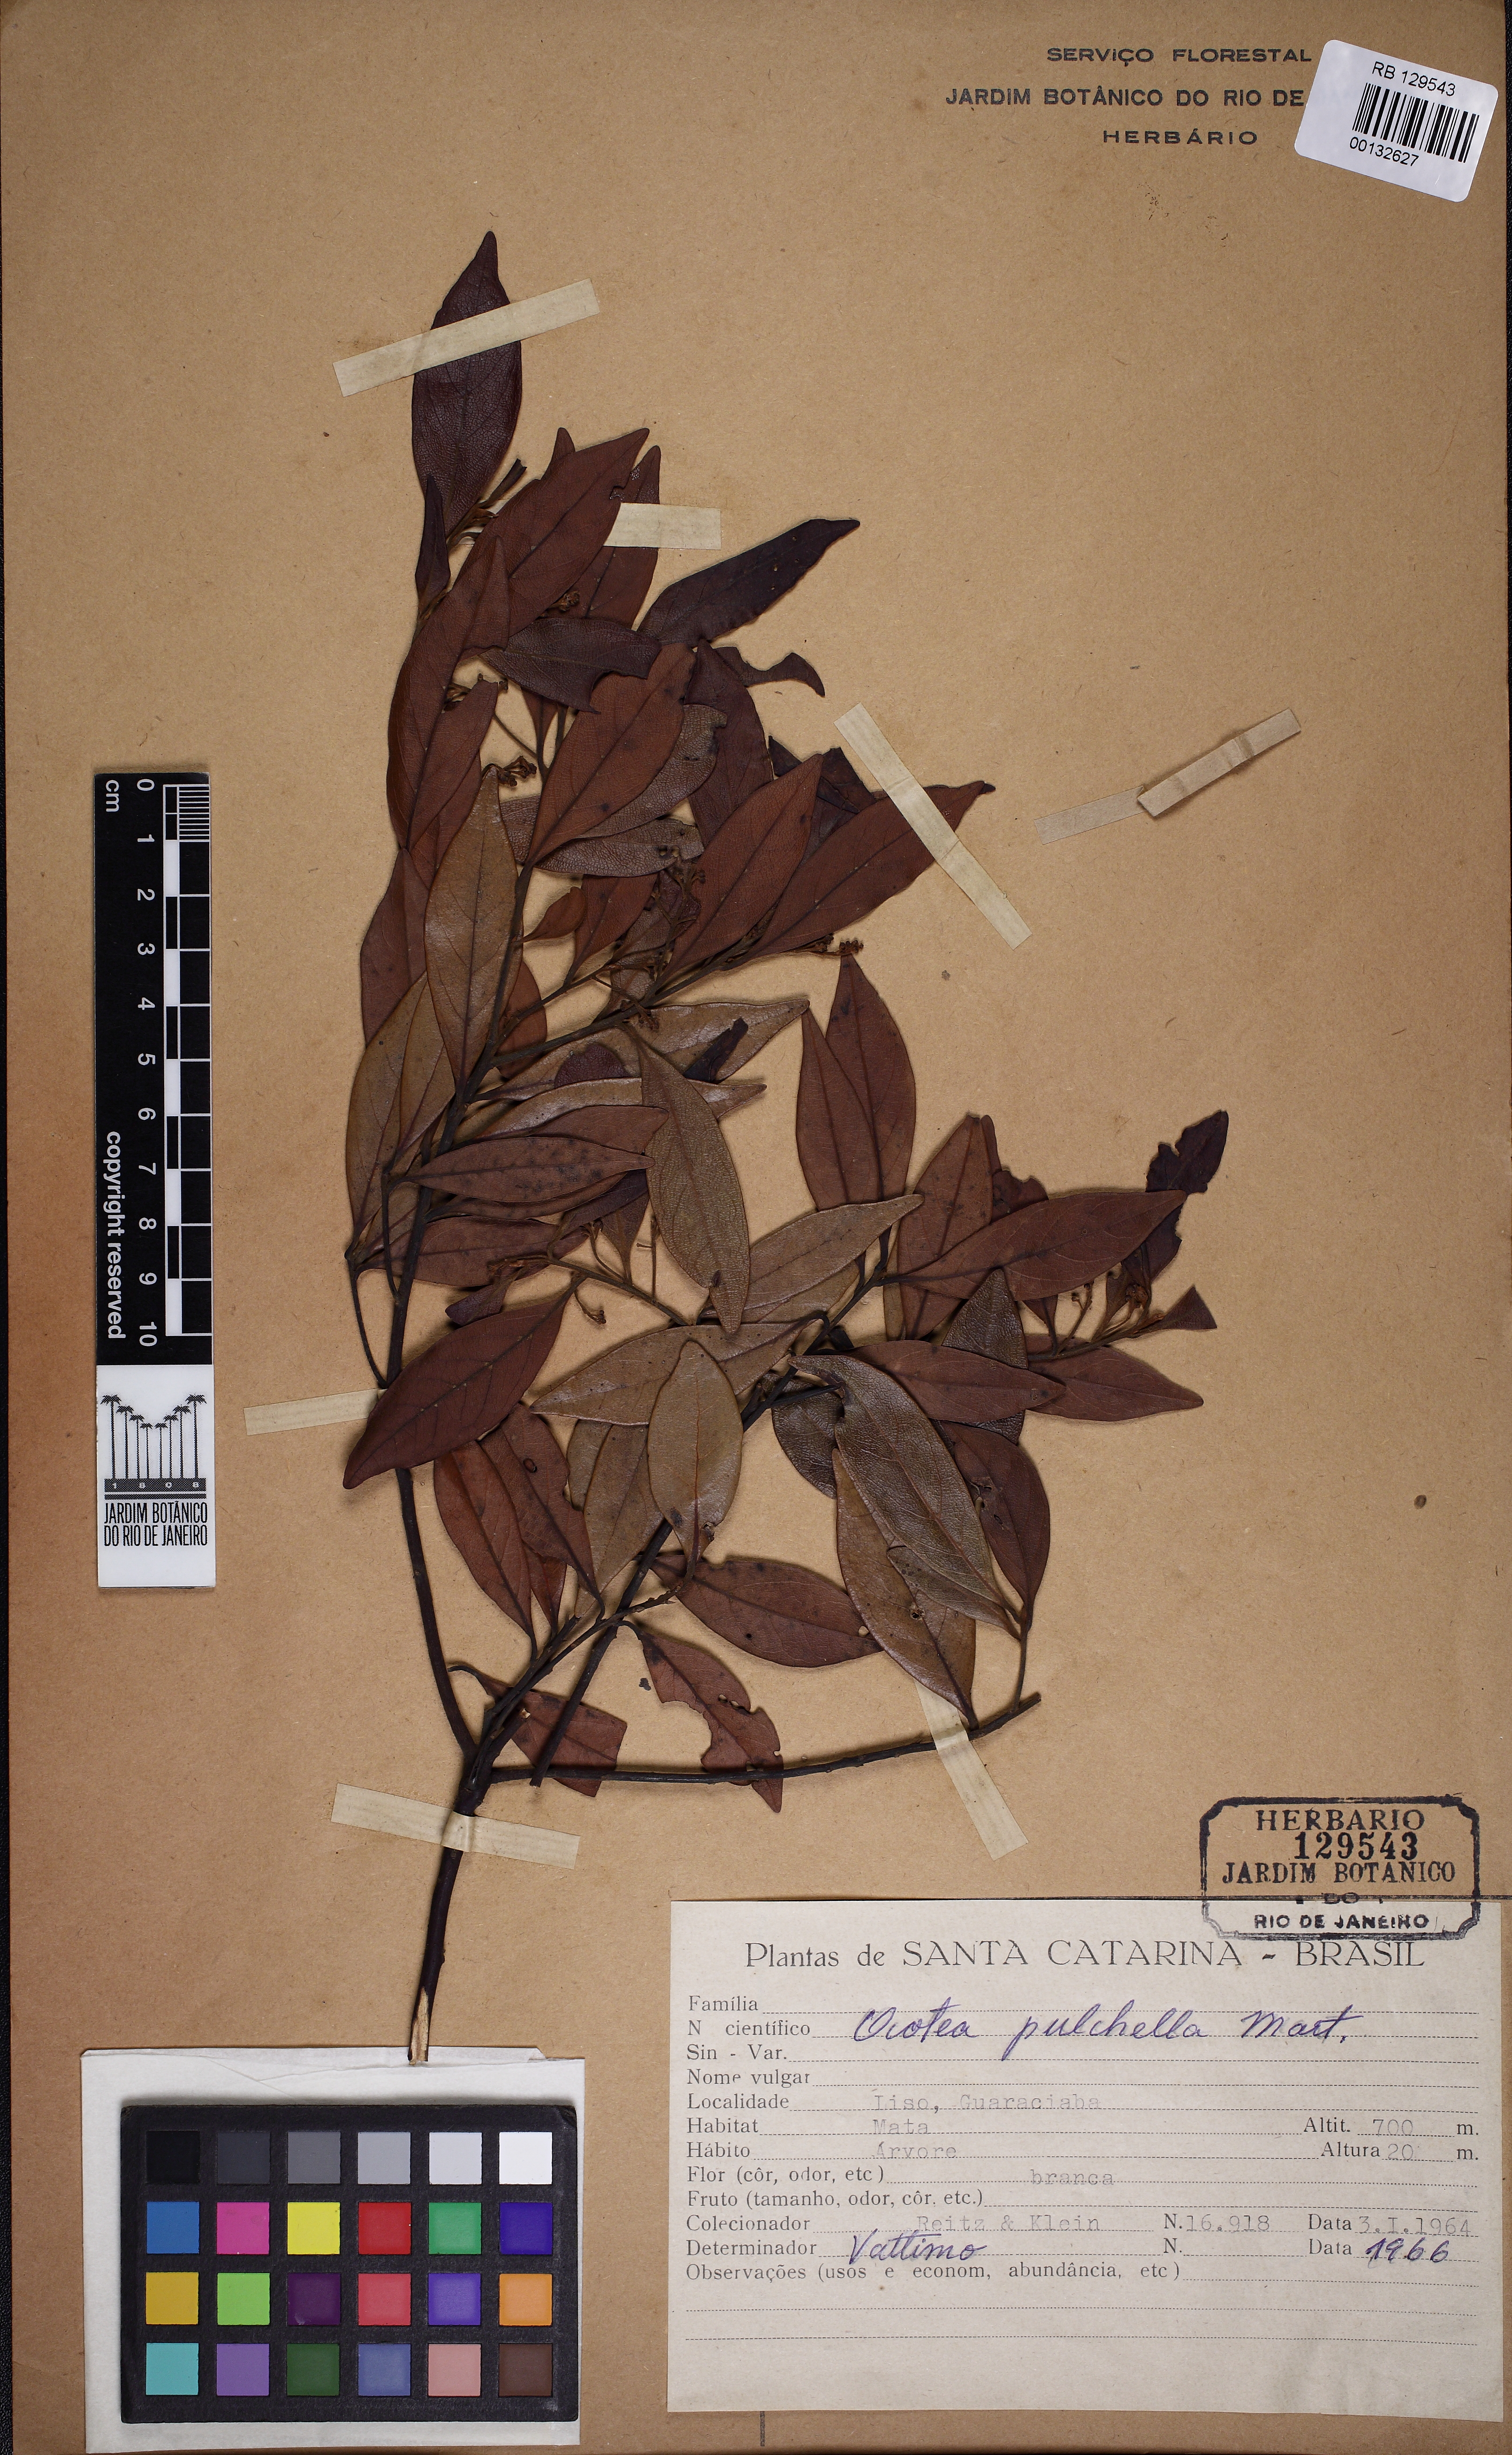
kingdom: Plantae
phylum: Tracheophyta
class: Magnoliopsida
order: Laurales
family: Lauraceae
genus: Mespilodaphne
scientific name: Mespilodaphne pulchella
